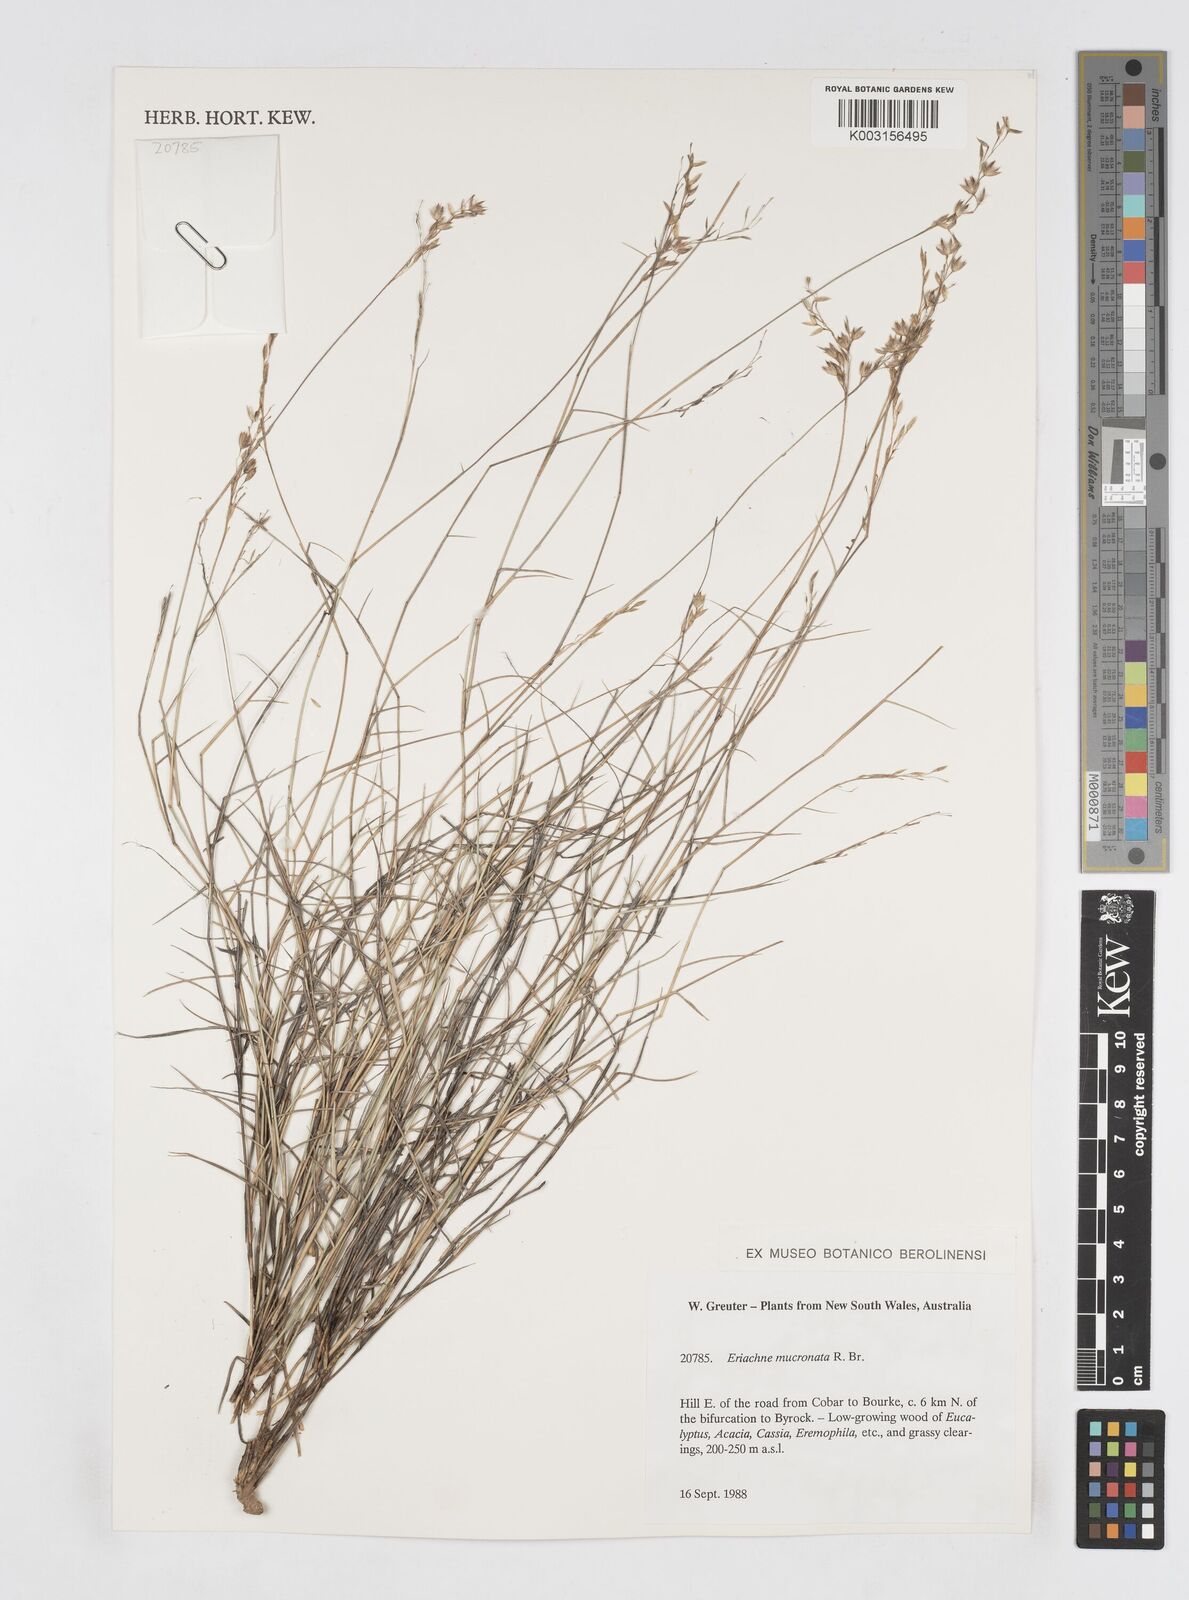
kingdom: Plantae
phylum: Tracheophyta
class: Liliopsida
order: Poales
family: Poaceae
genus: Eriachne
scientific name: Eriachne mucronata
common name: Mountain wanderrie grass
